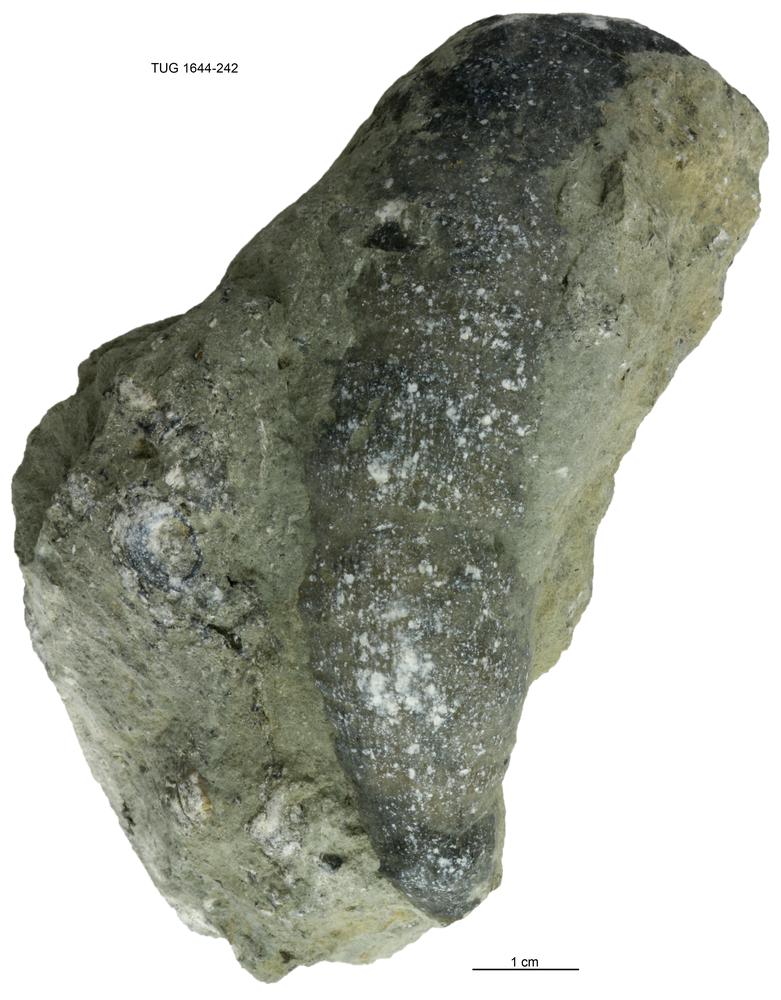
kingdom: Animalia
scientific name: Animalia
